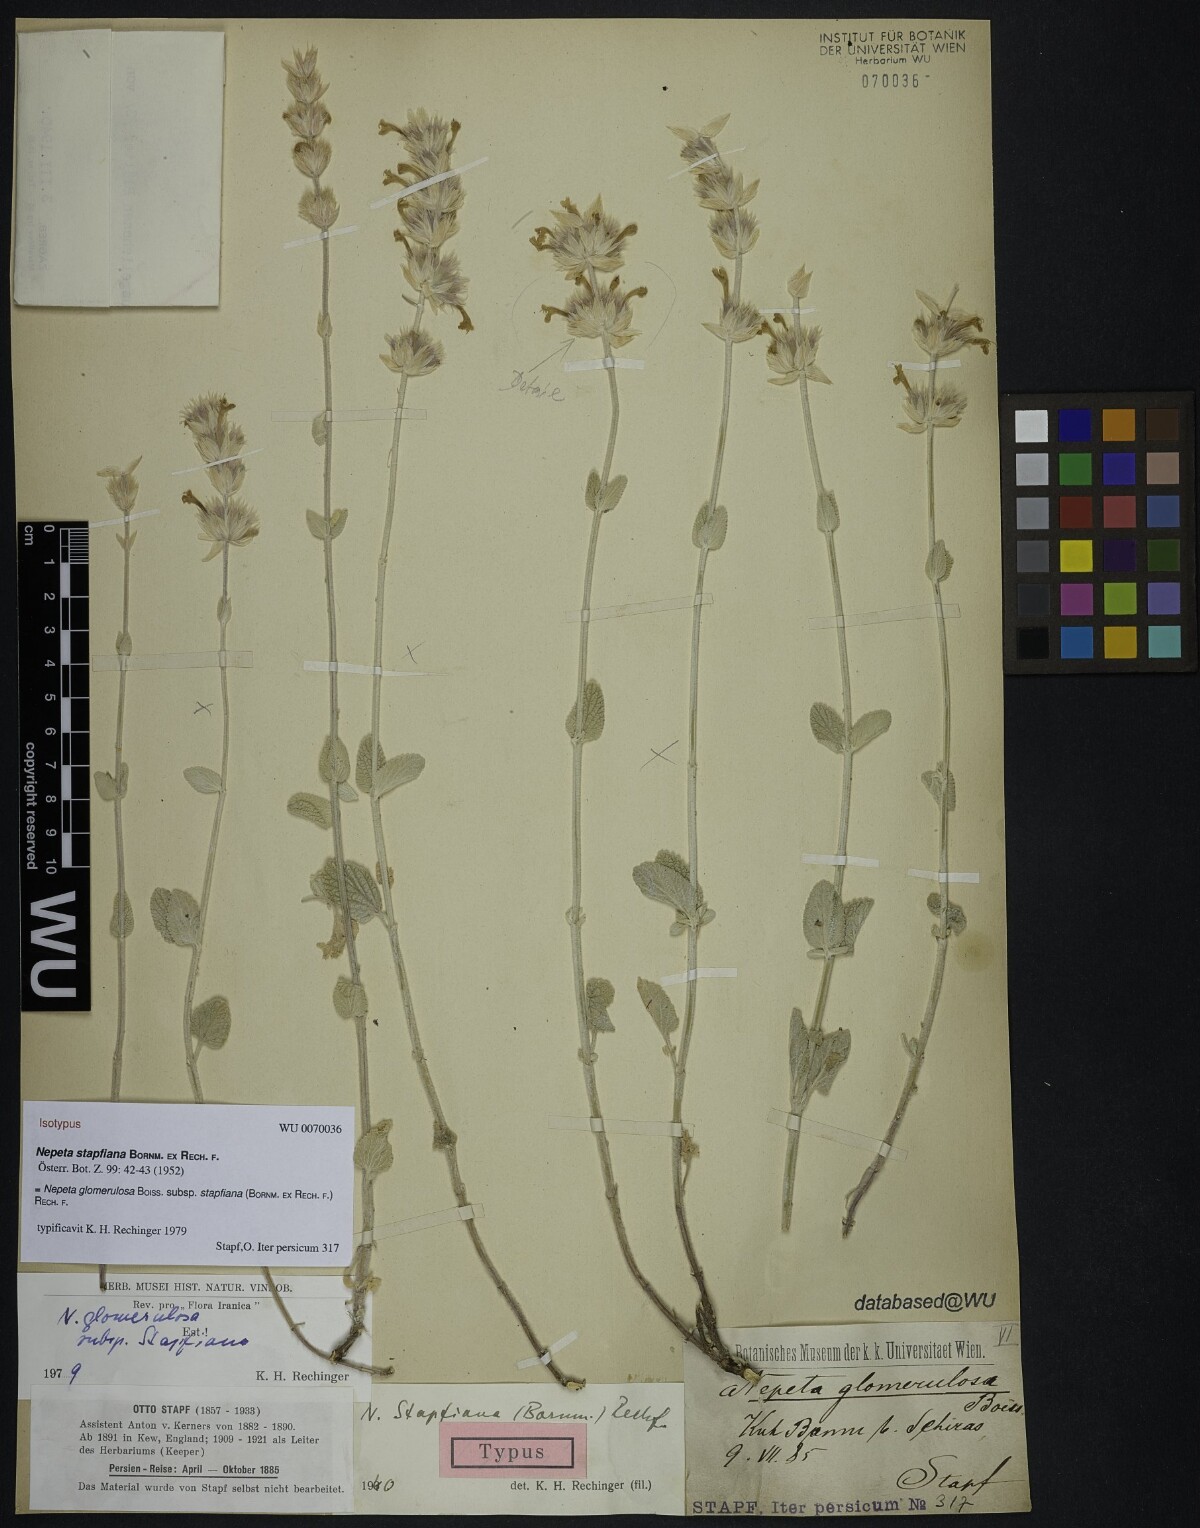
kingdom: Plantae
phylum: Tracheophyta
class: Magnoliopsida
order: Lamiales
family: Lamiaceae
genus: Nepeta
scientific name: Nepeta glomerulosa
